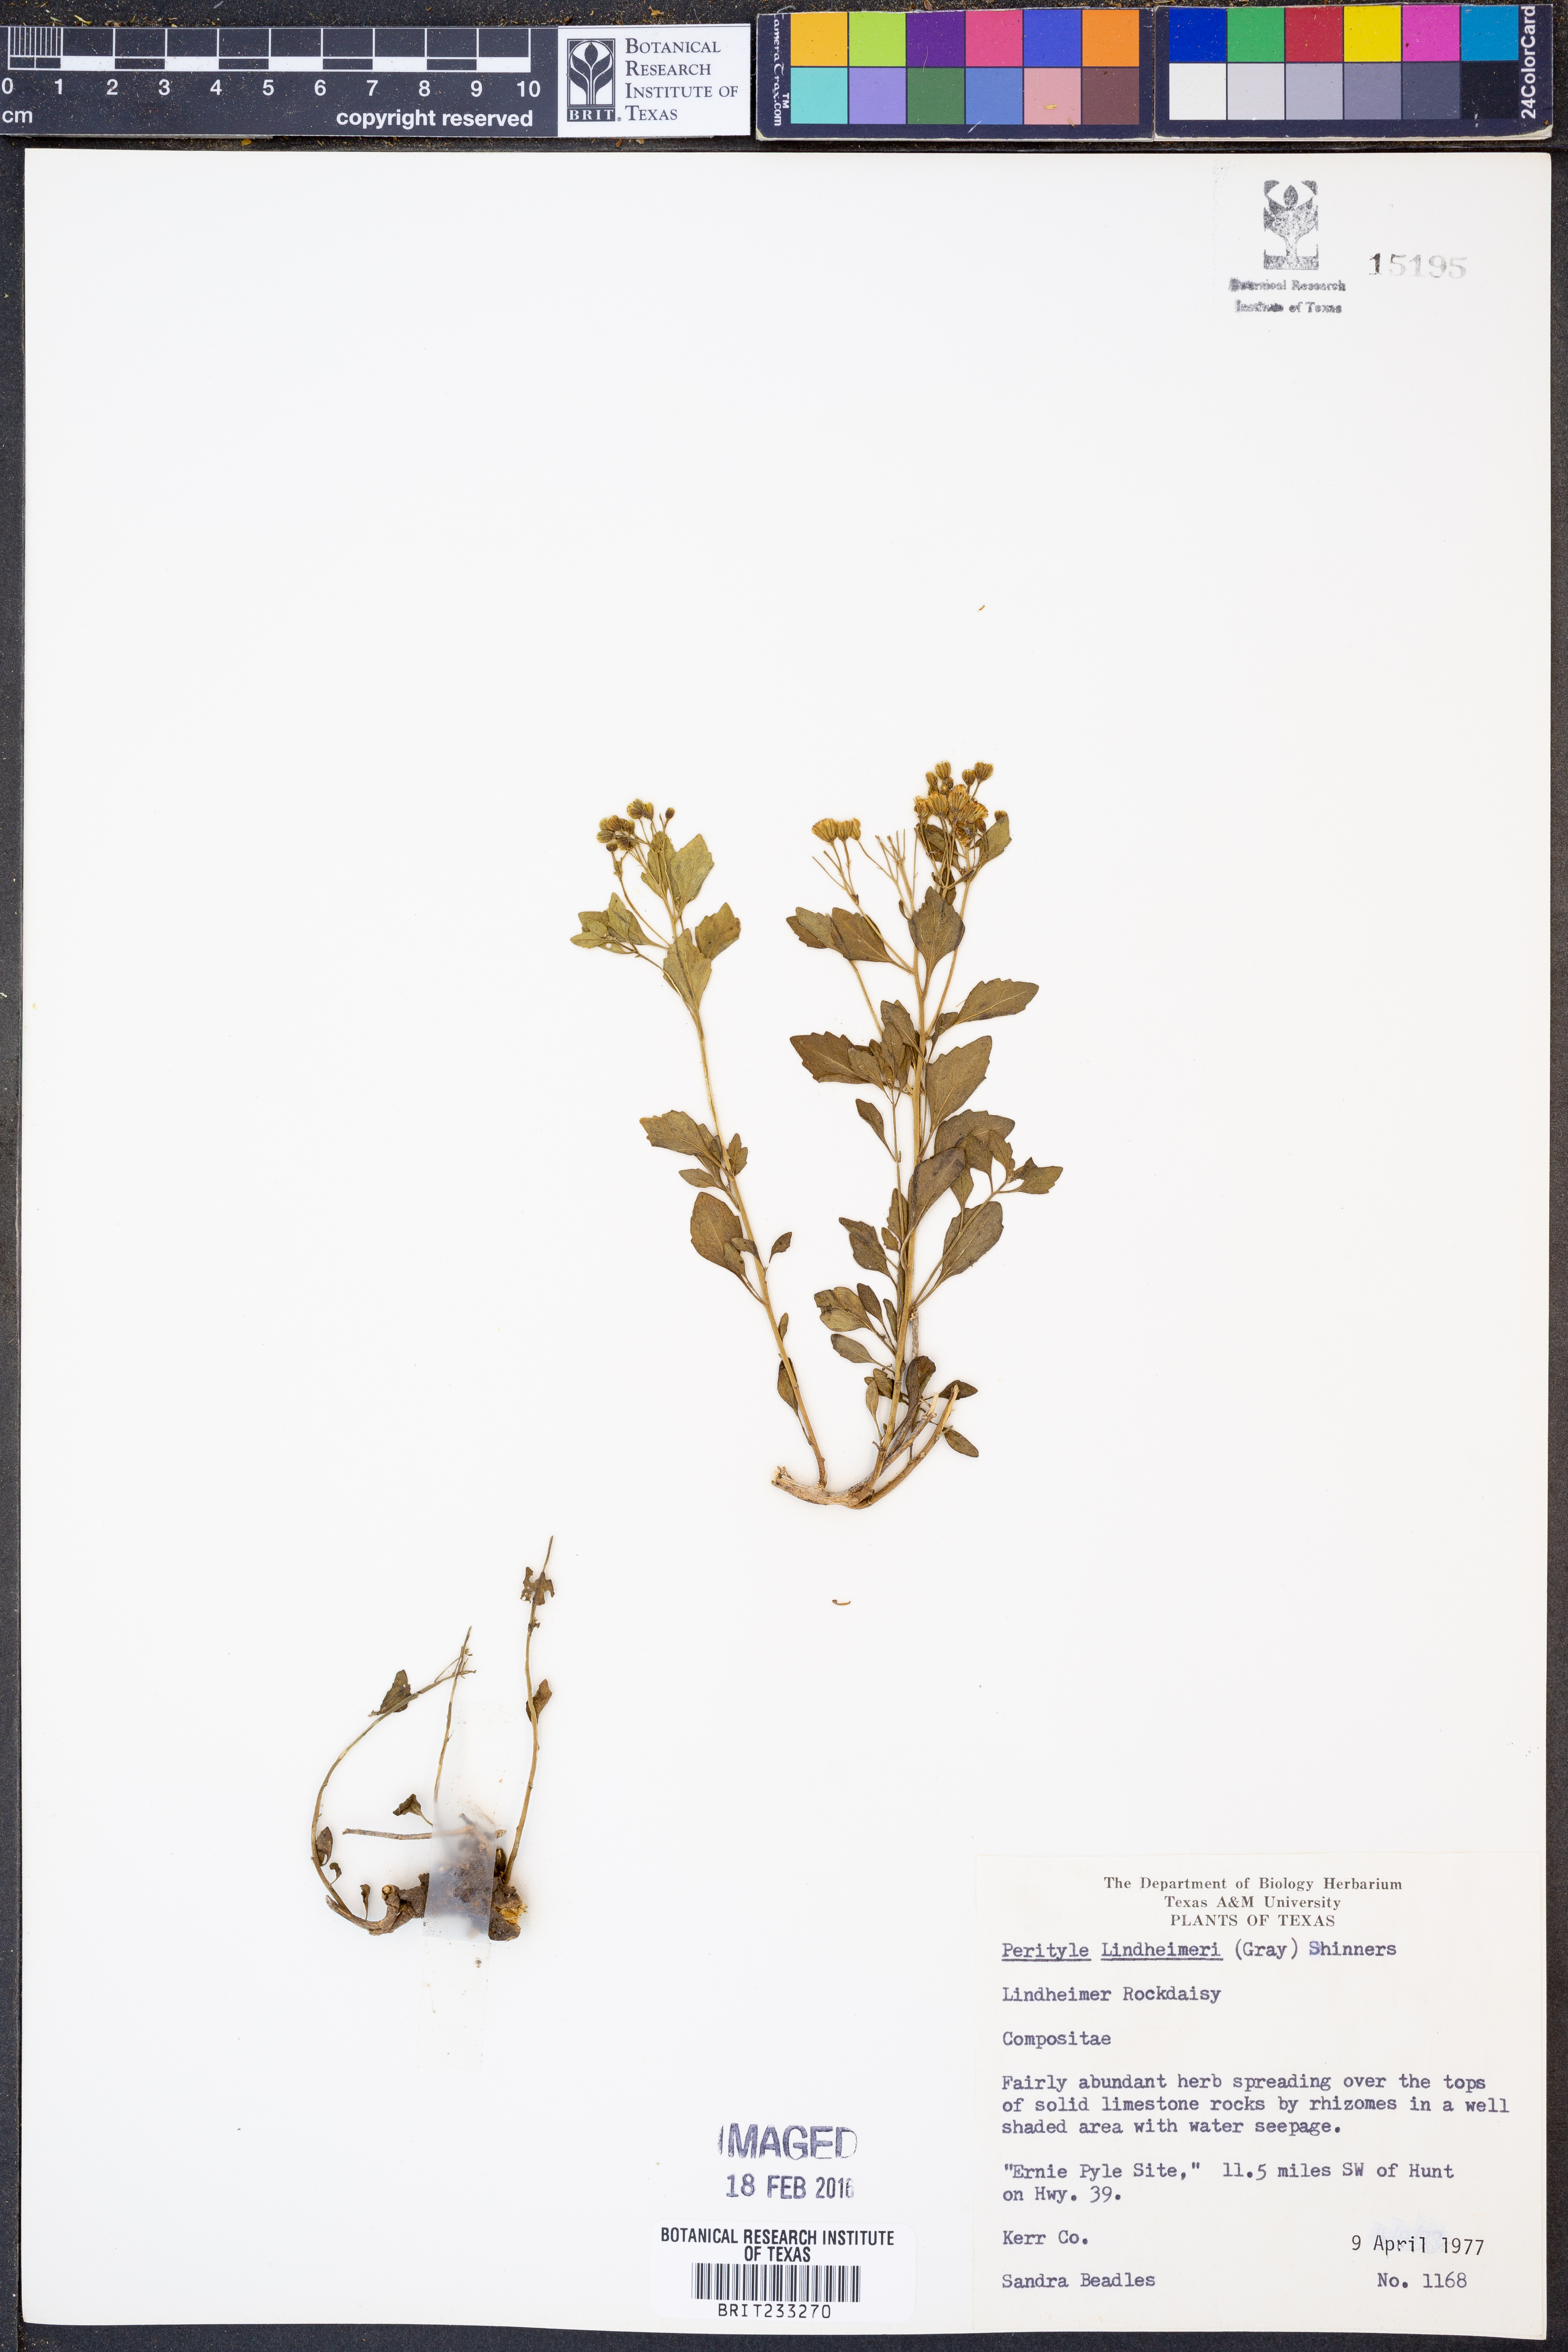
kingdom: Plantae
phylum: Tracheophyta
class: Magnoliopsida
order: Asterales
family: Asteraceae
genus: Laphamia
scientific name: Laphamia lindheimeri
